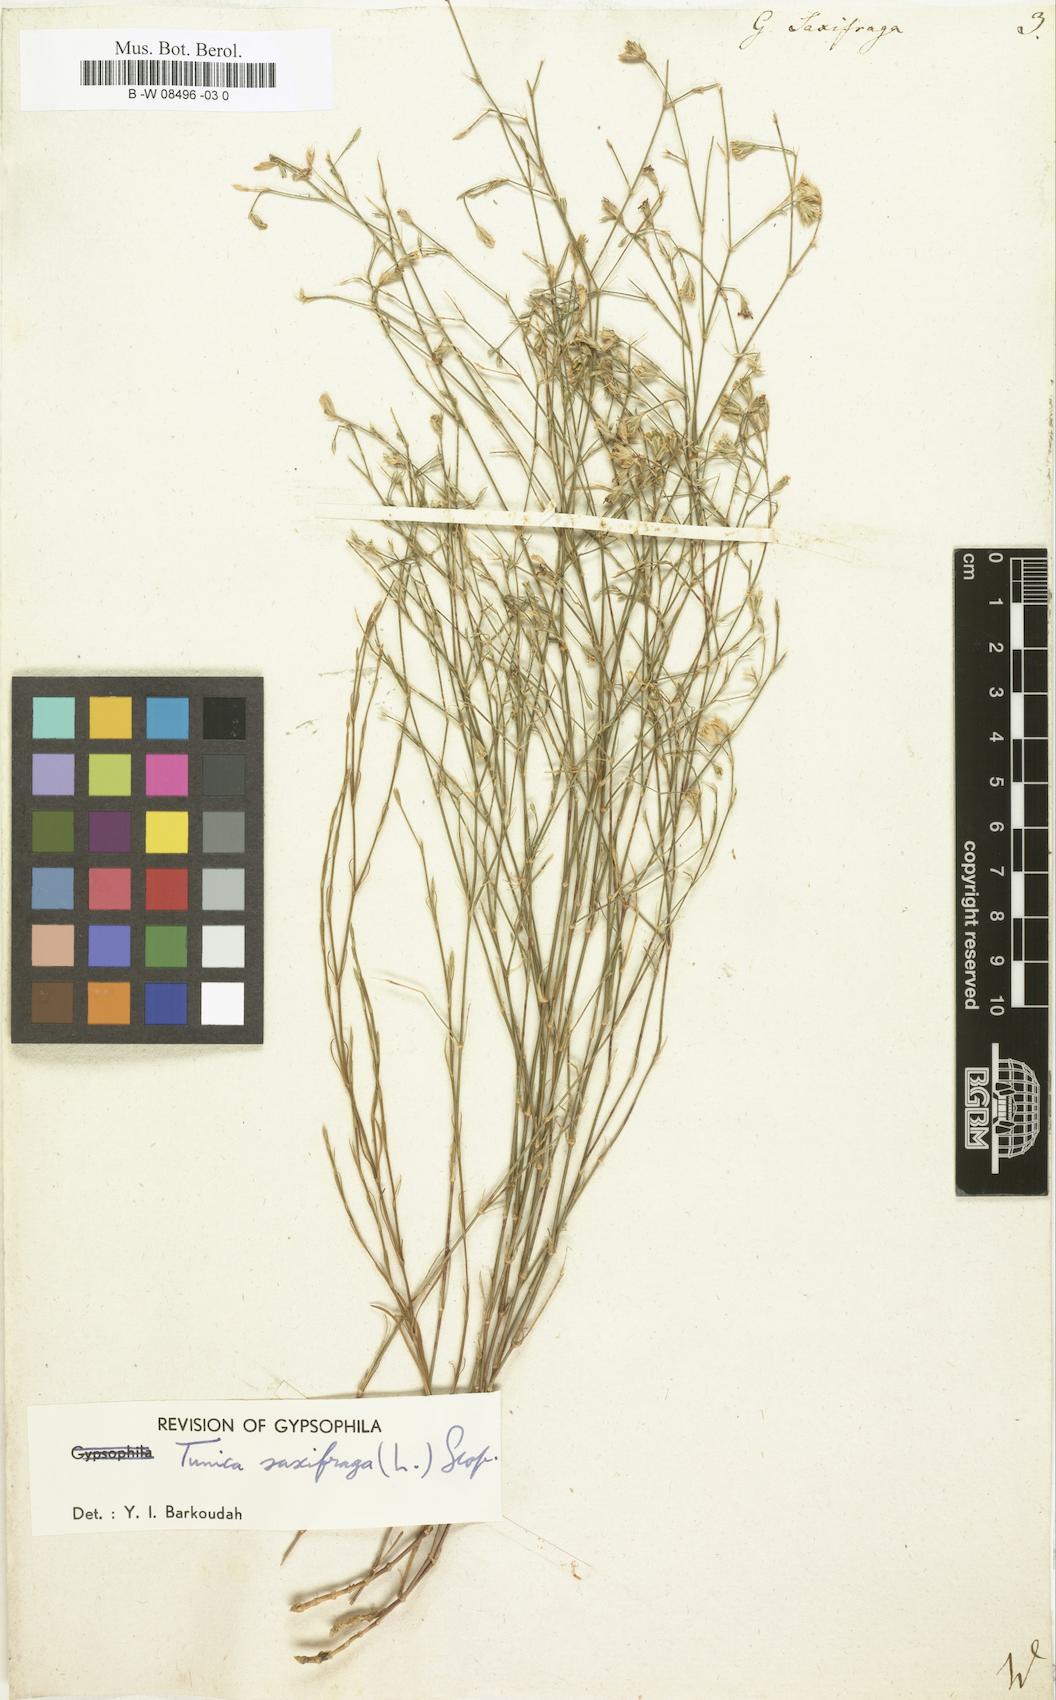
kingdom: Plantae
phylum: Tracheophyta
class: Magnoliopsida
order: Caryophyllales
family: Caryophyllaceae
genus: Petrorhagia
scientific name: Petrorhagia saxifraga
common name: Tunicflower
